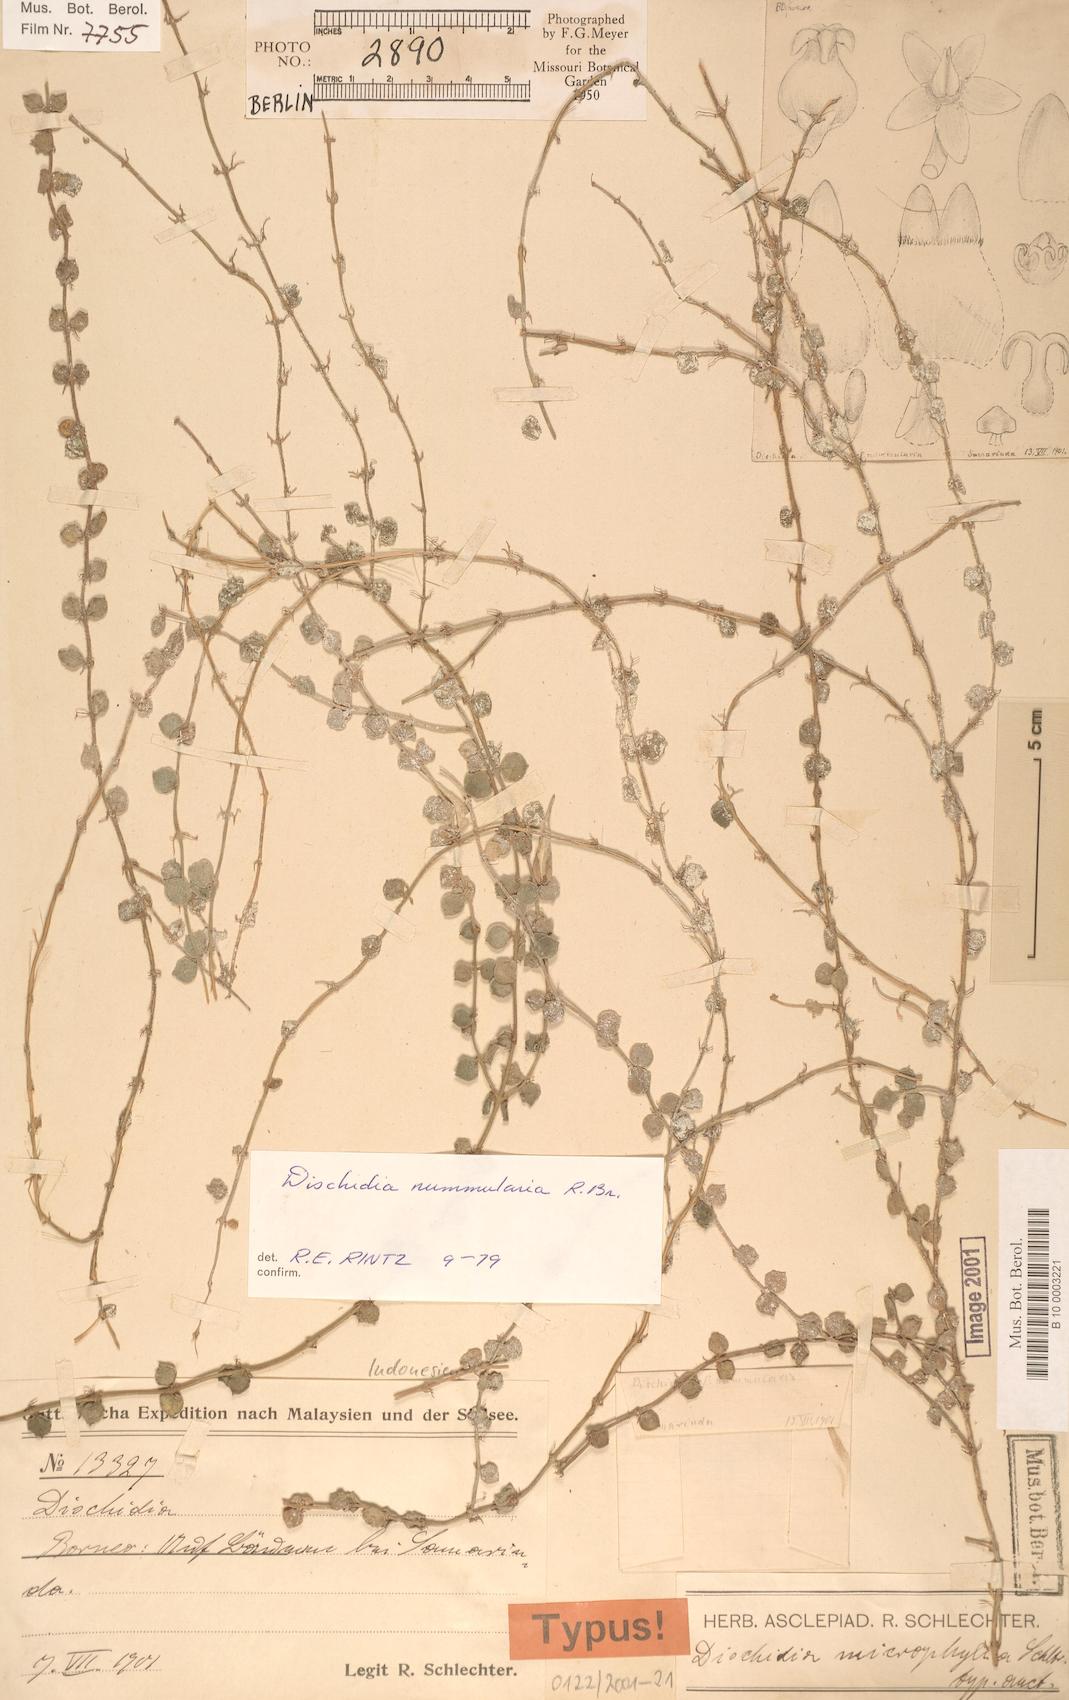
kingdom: Plantae
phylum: Tracheophyta
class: Magnoliopsida
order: Gentianales
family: Apocynaceae
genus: Dischidia
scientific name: Dischidia nummularia
